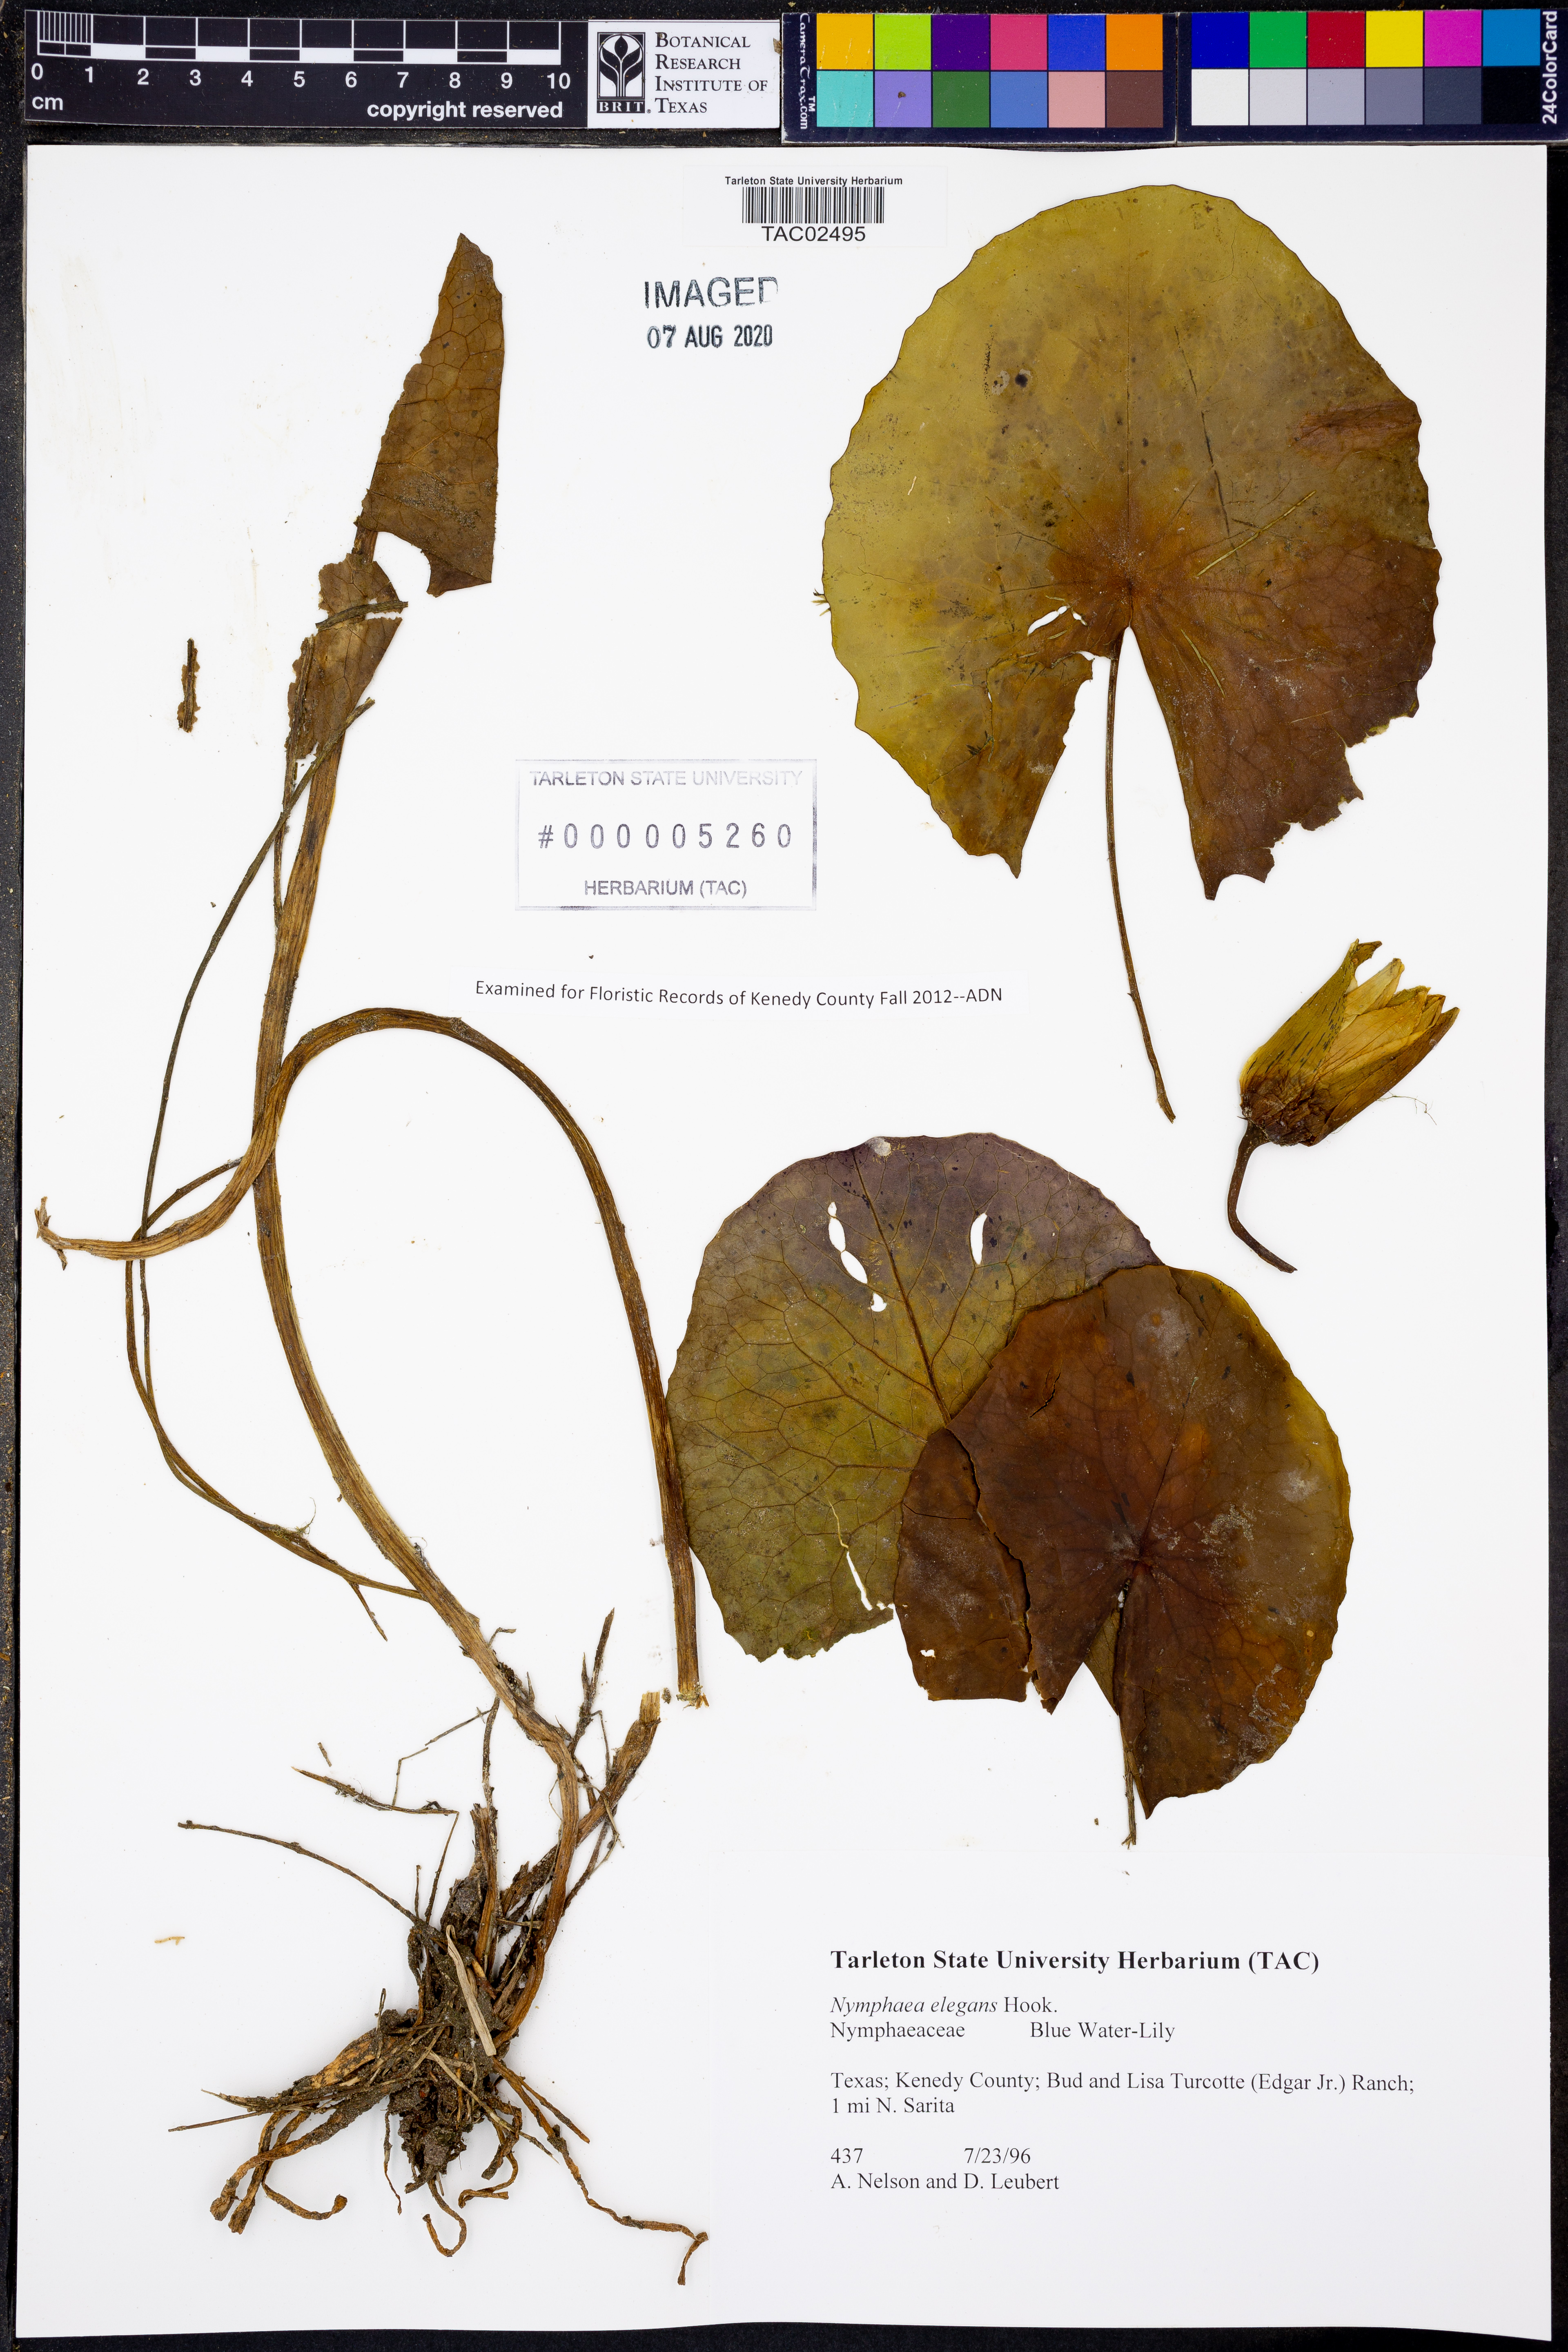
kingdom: Plantae
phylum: Tracheophyta
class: Magnoliopsida
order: Nymphaeales
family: Nymphaeaceae
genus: Nymphaea
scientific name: Nymphaea elegans
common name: Blue water-lily
